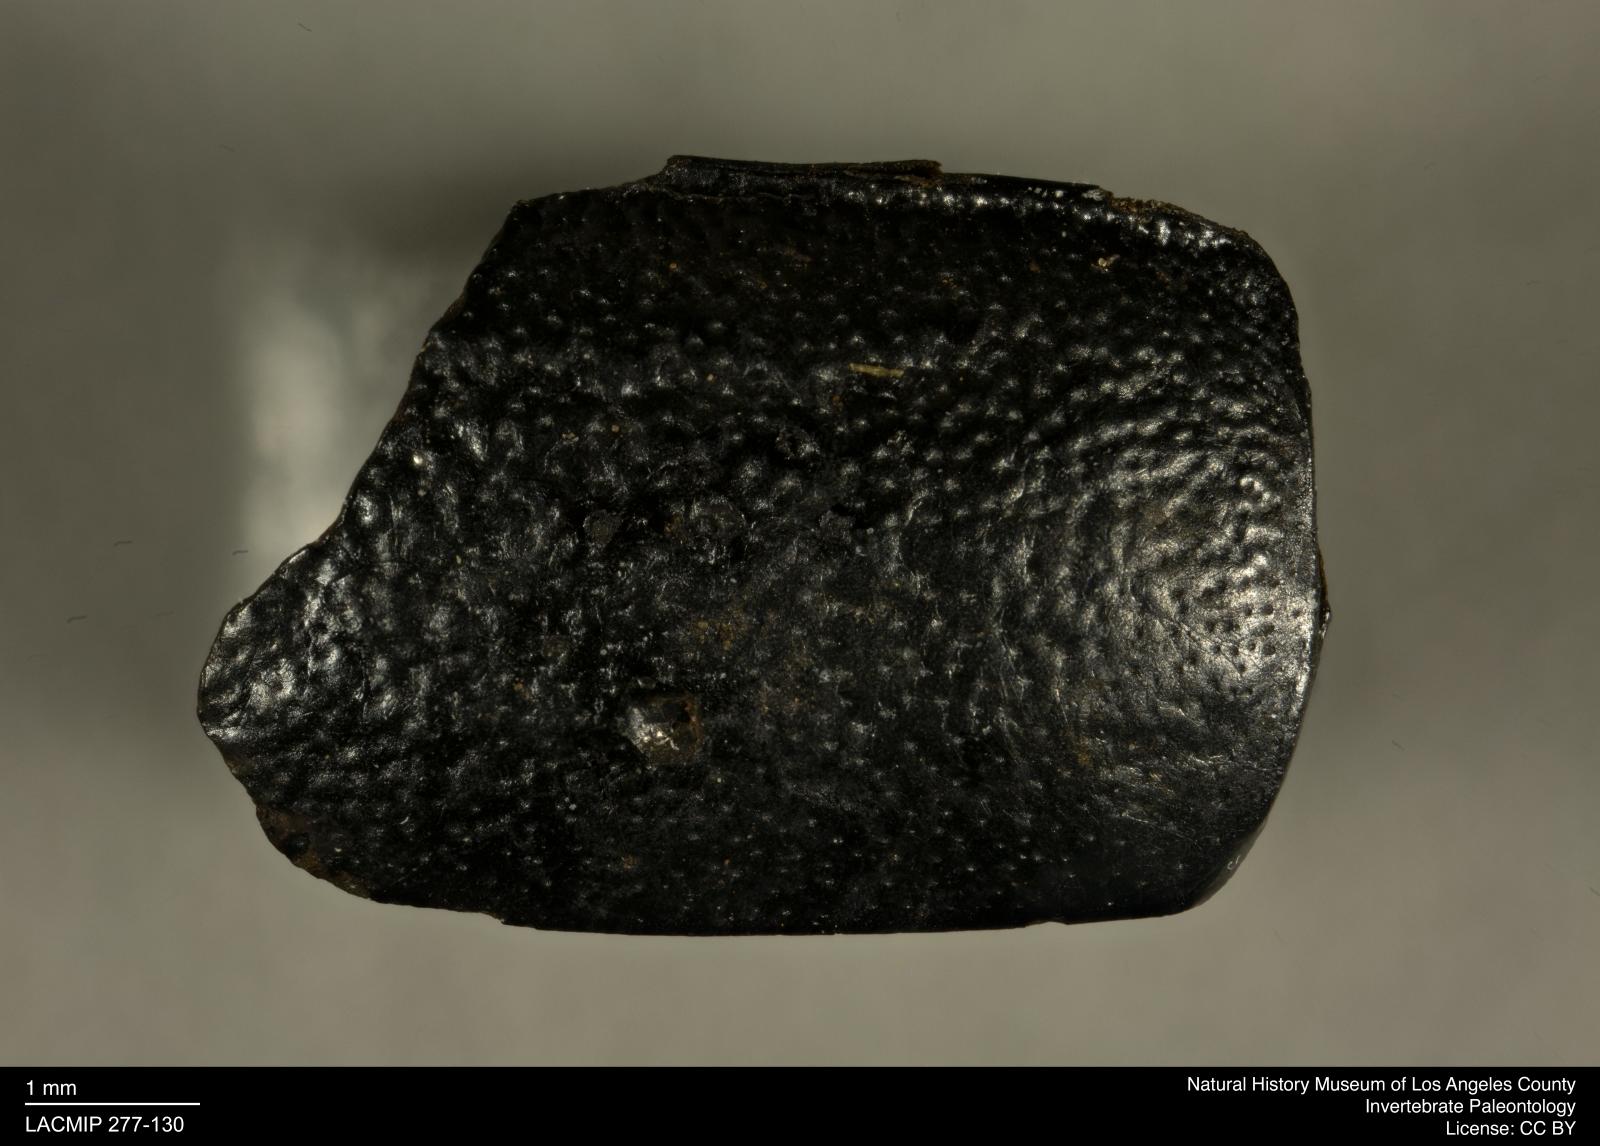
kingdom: Animalia
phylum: Arthropoda
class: Insecta
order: Coleoptera
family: Tenebrionidae
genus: Coniontis
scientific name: Coniontis abdominalis
